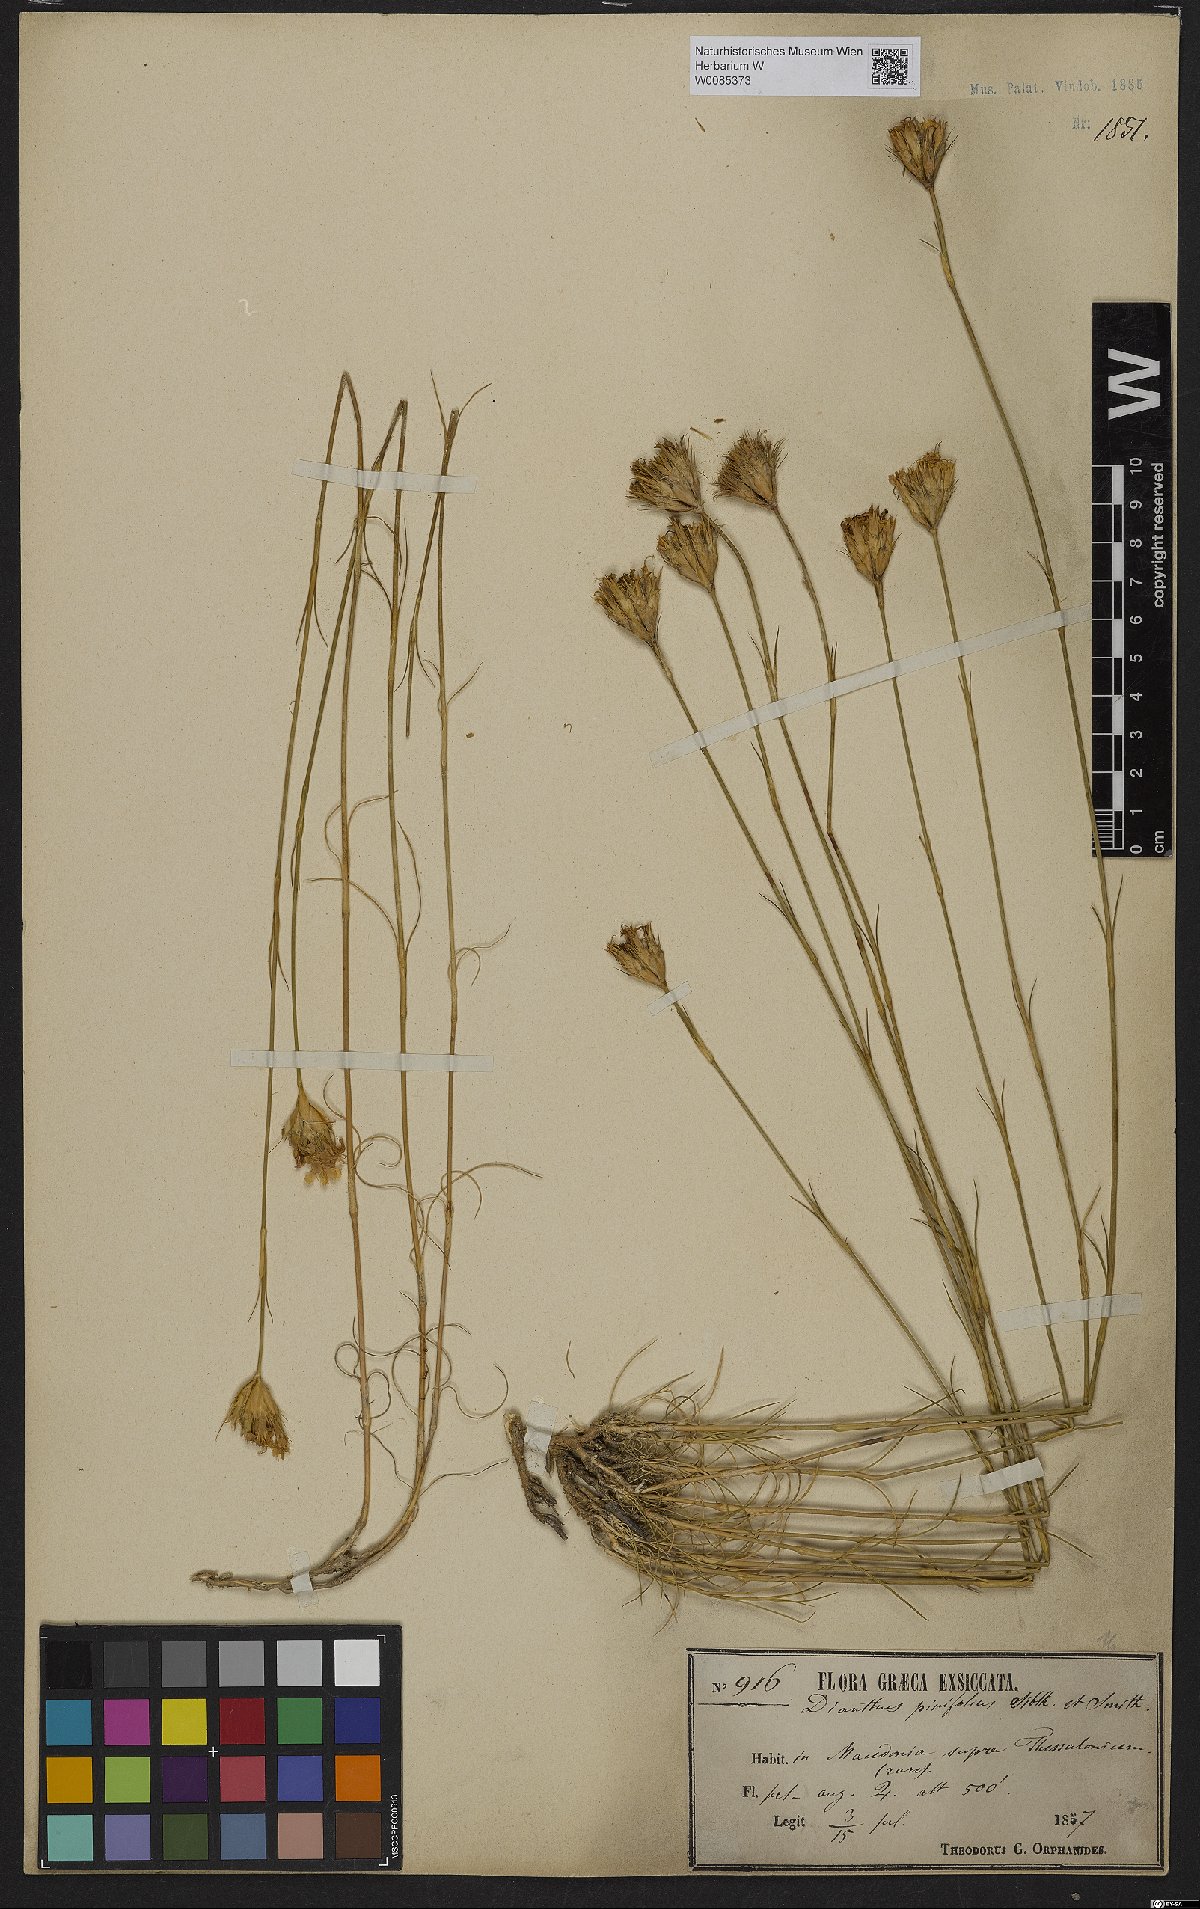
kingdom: Plantae
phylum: Tracheophyta
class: Magnoliopsida
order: Caryophyllales
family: Caryophyllaceae
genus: Dianthus
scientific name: Dianthus pinifolius
